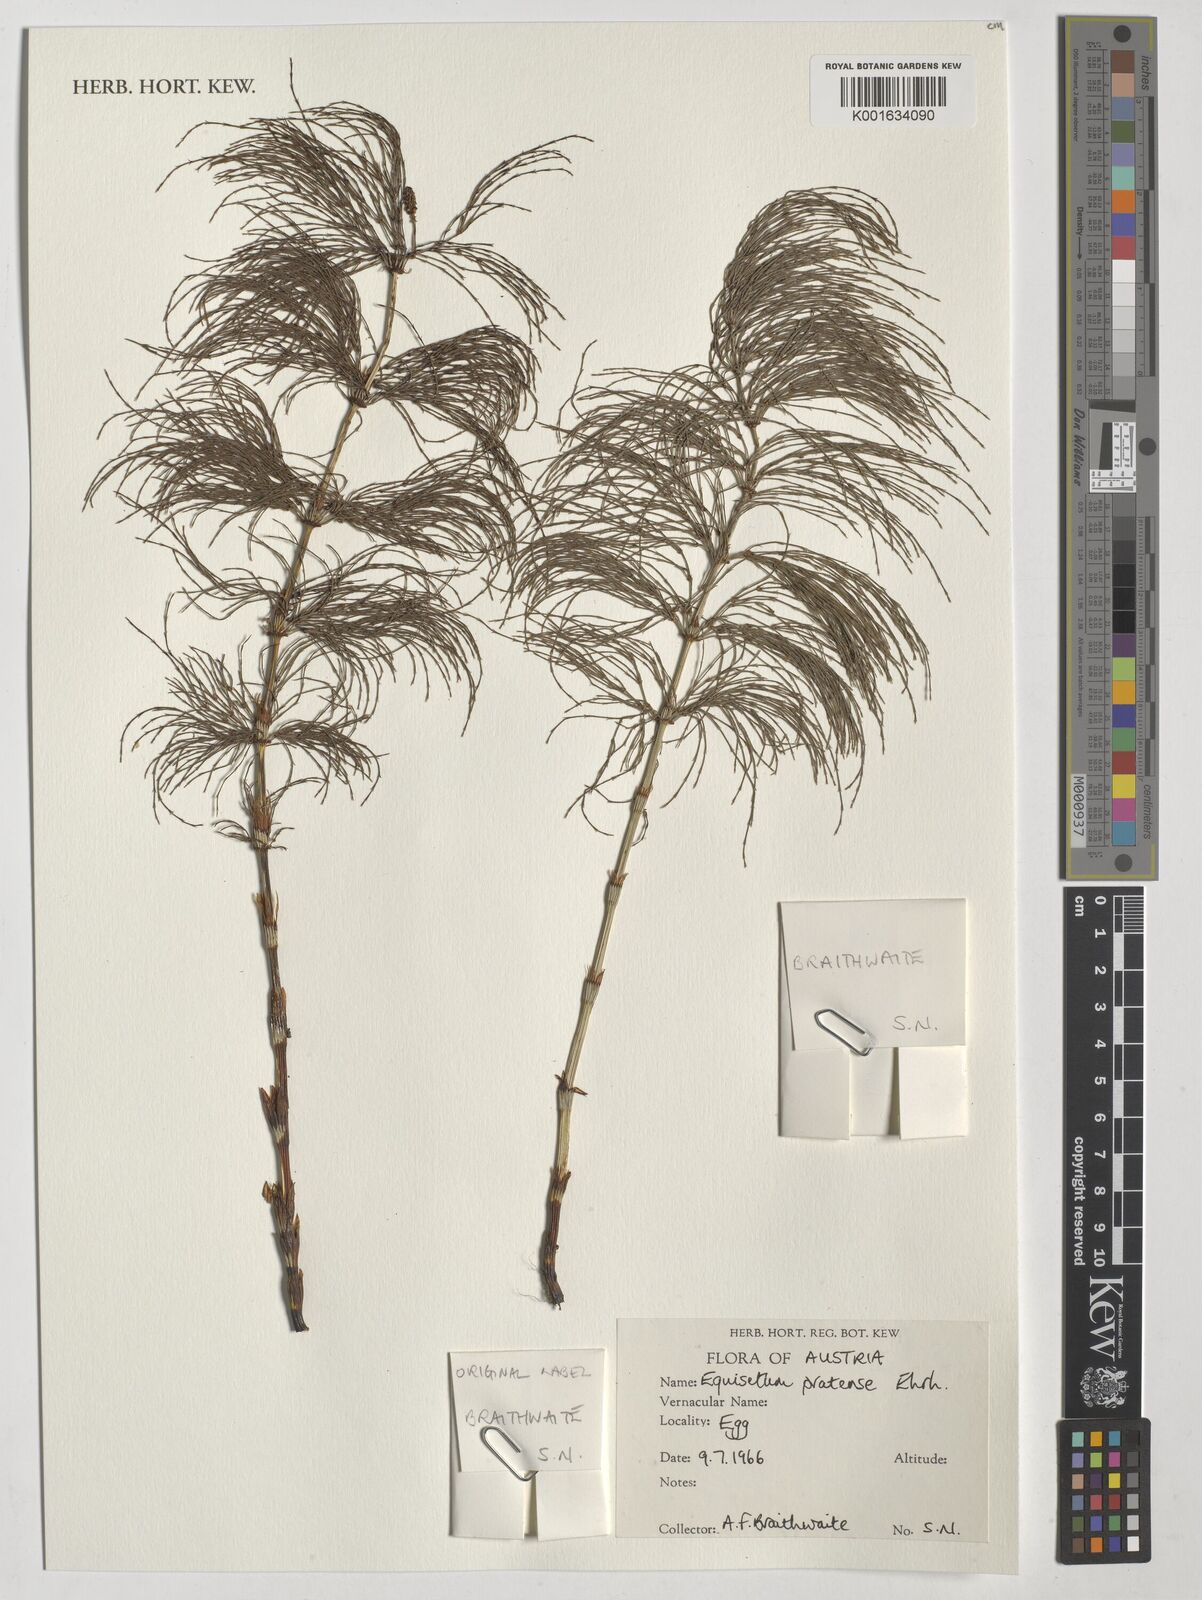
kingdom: Plantae
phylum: Tracheophyta
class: Polypodiopsida
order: Equisetales
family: Equisetaceae
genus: Equisetum
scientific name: Equisetum pratense
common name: Meadow horsetail
